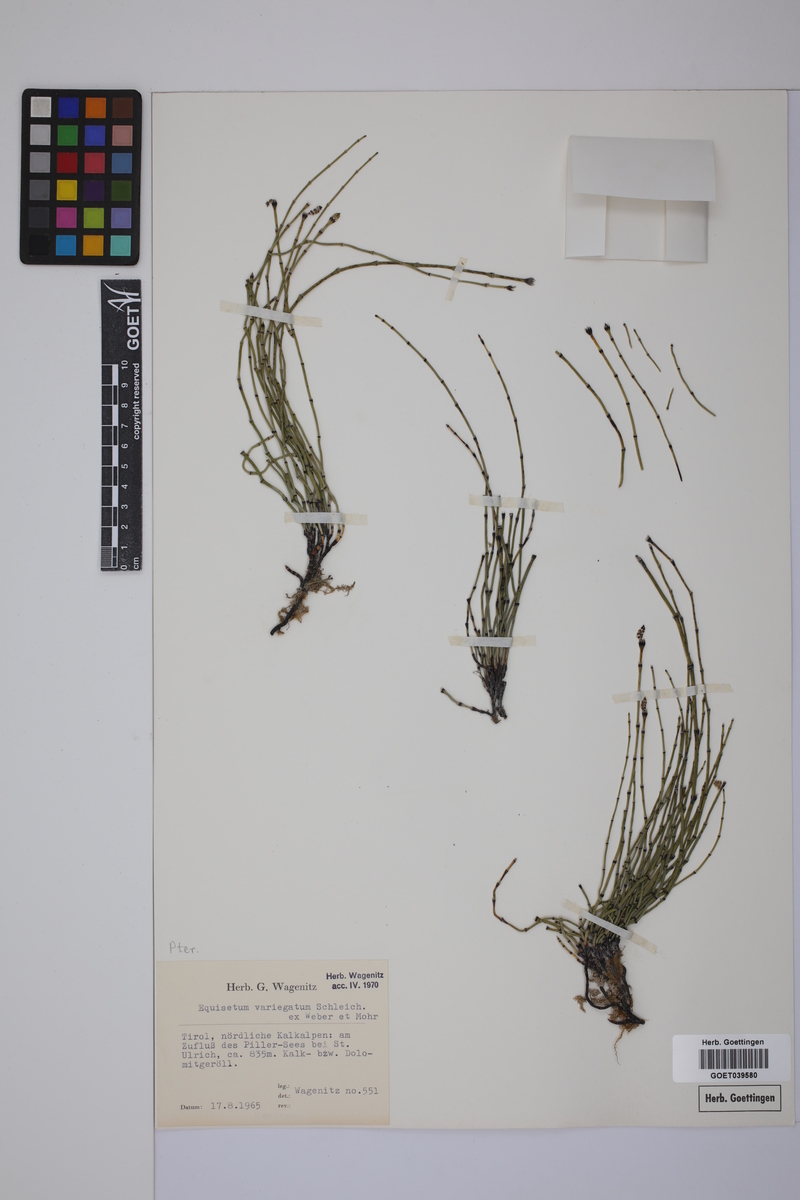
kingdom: Plantae
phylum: Tracheophyta
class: Polypodiopsida
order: Equisetales
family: Equisetaceae
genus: Equisetum
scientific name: Equisetum variegatum
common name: Variegated horsetail
